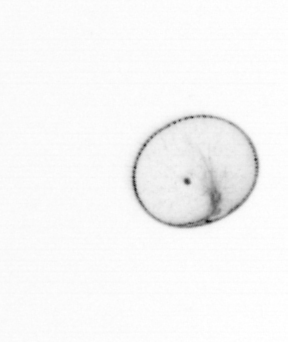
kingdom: Chromista
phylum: Myzozoa
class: Dinophyceae
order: Noctilucales
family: Noctilucaceae
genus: Noctiluca
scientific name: Noctiluca scintillans
